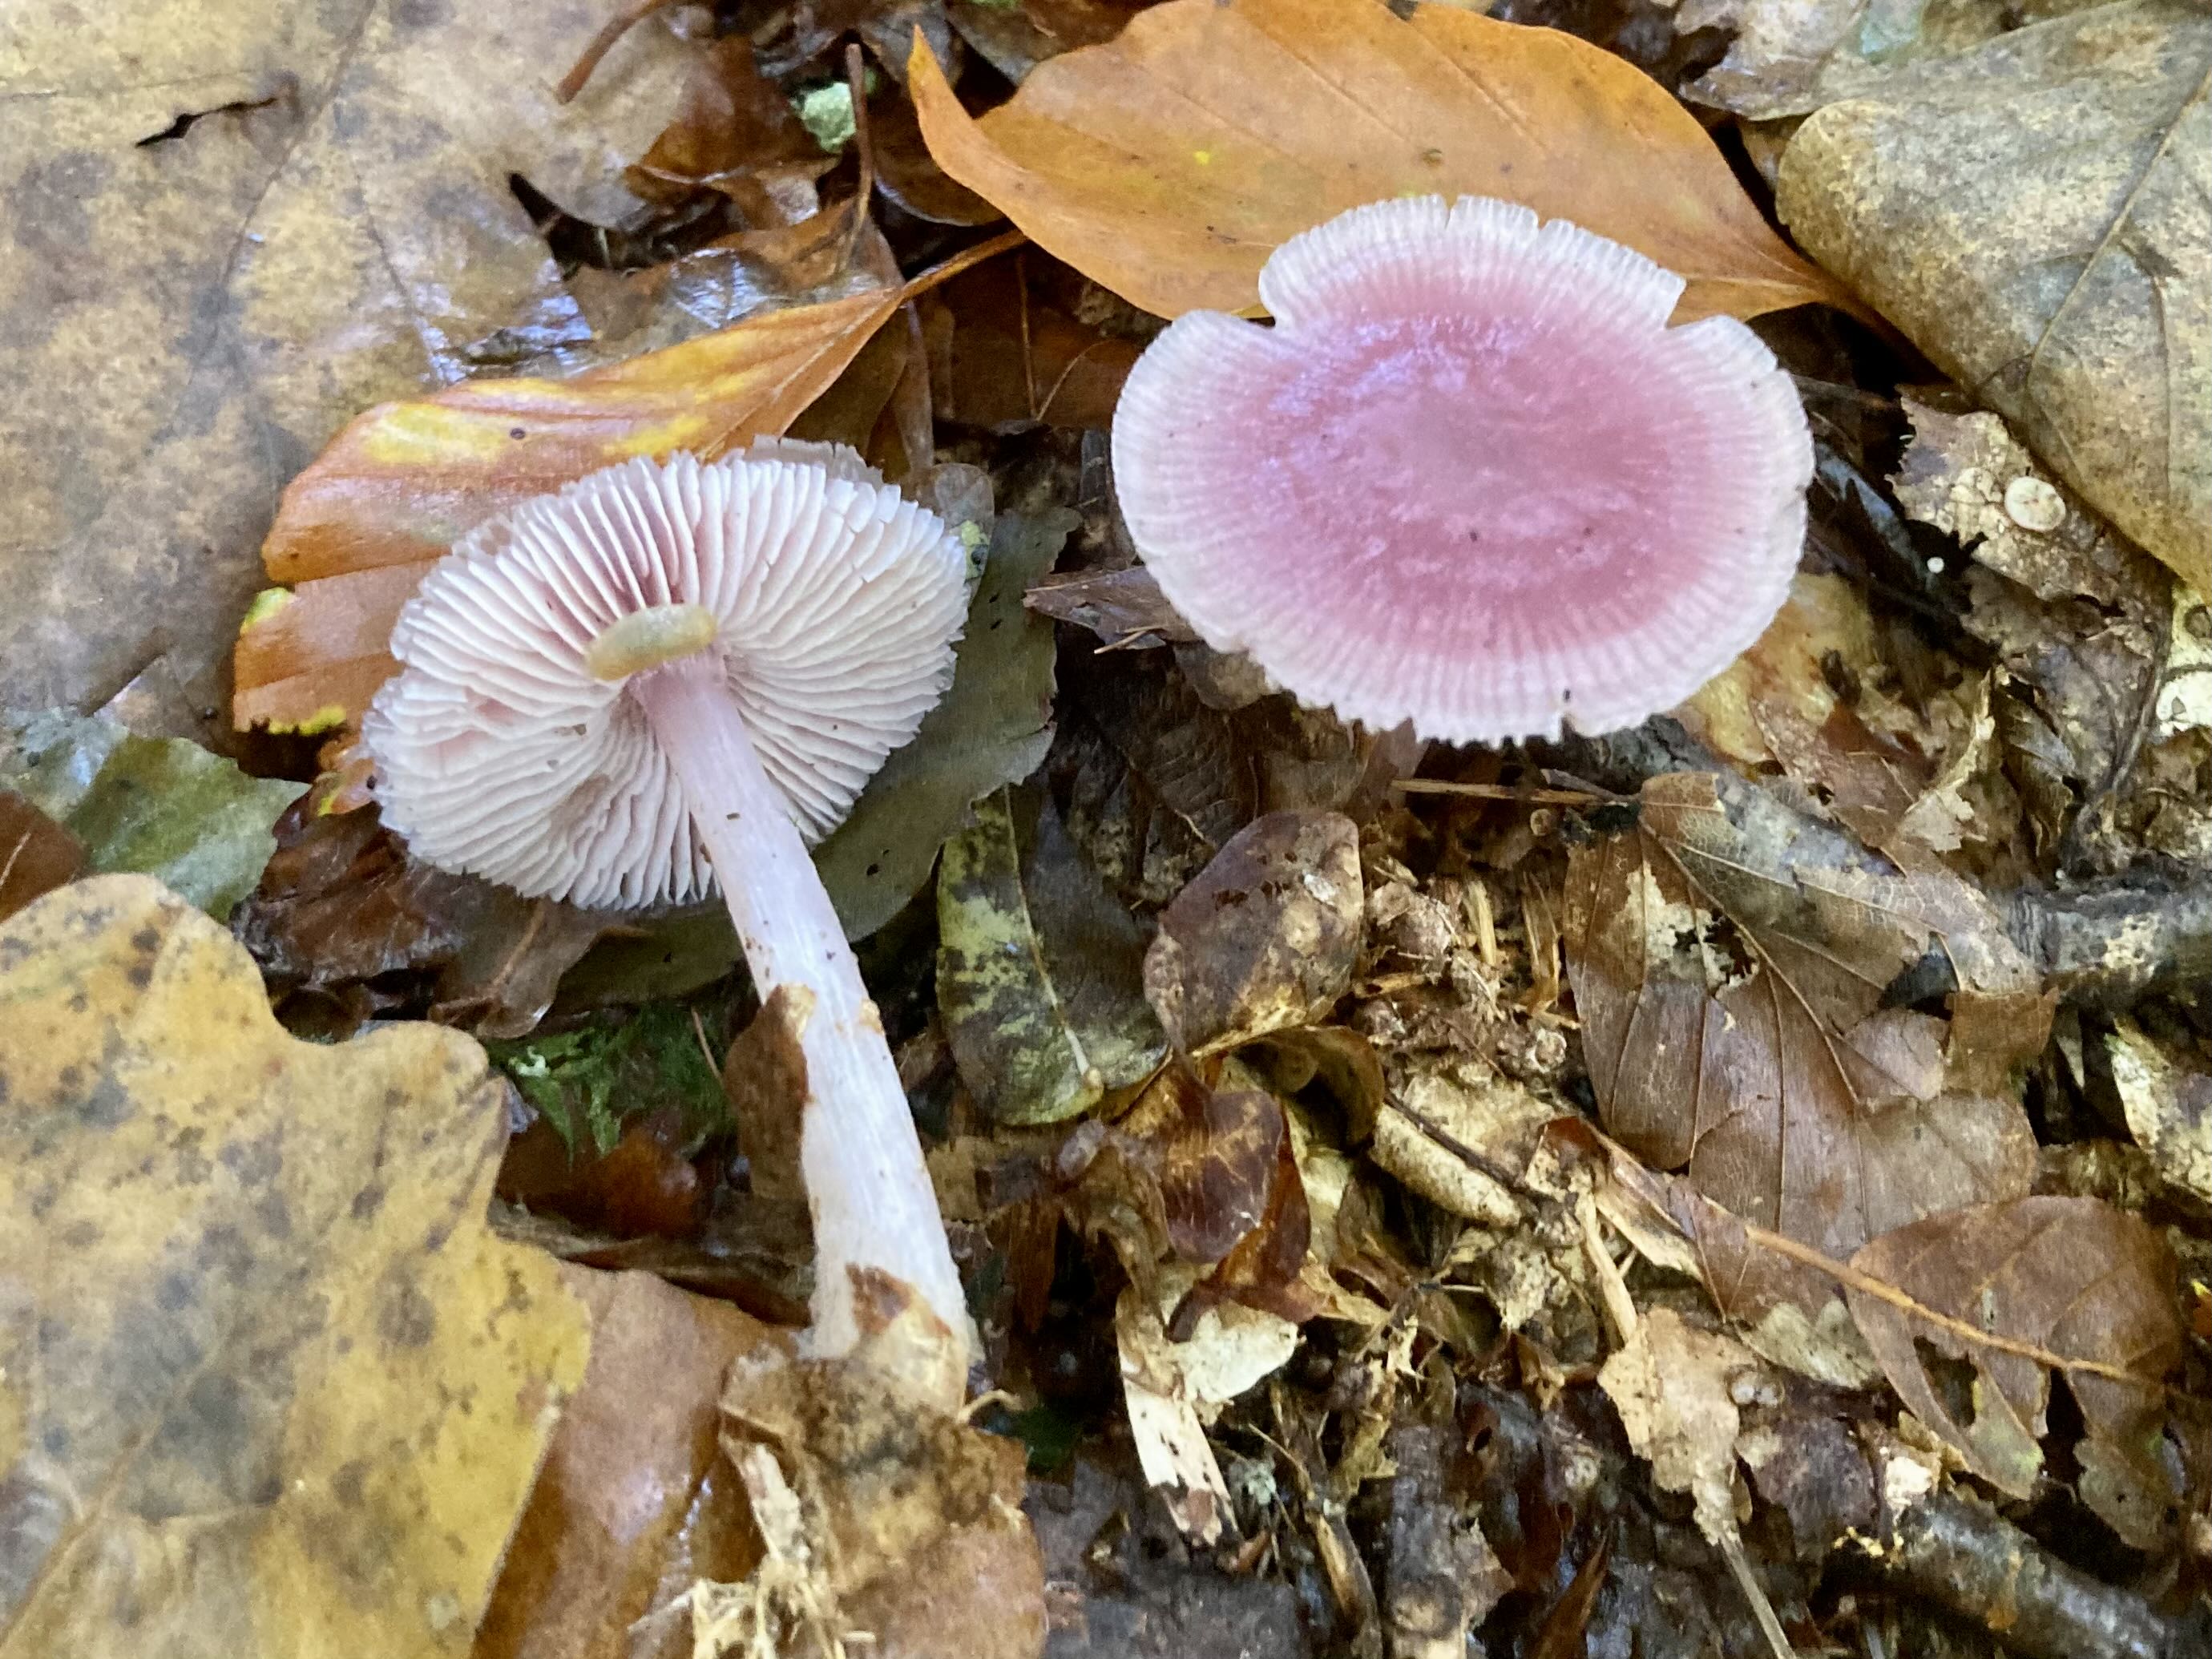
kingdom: Fungi
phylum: Basidiomycota
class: Agaricomycetes
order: Agaricales
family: Mycenaceae
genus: Mycena
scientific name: Mycena rosea
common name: rosa huesvamp
